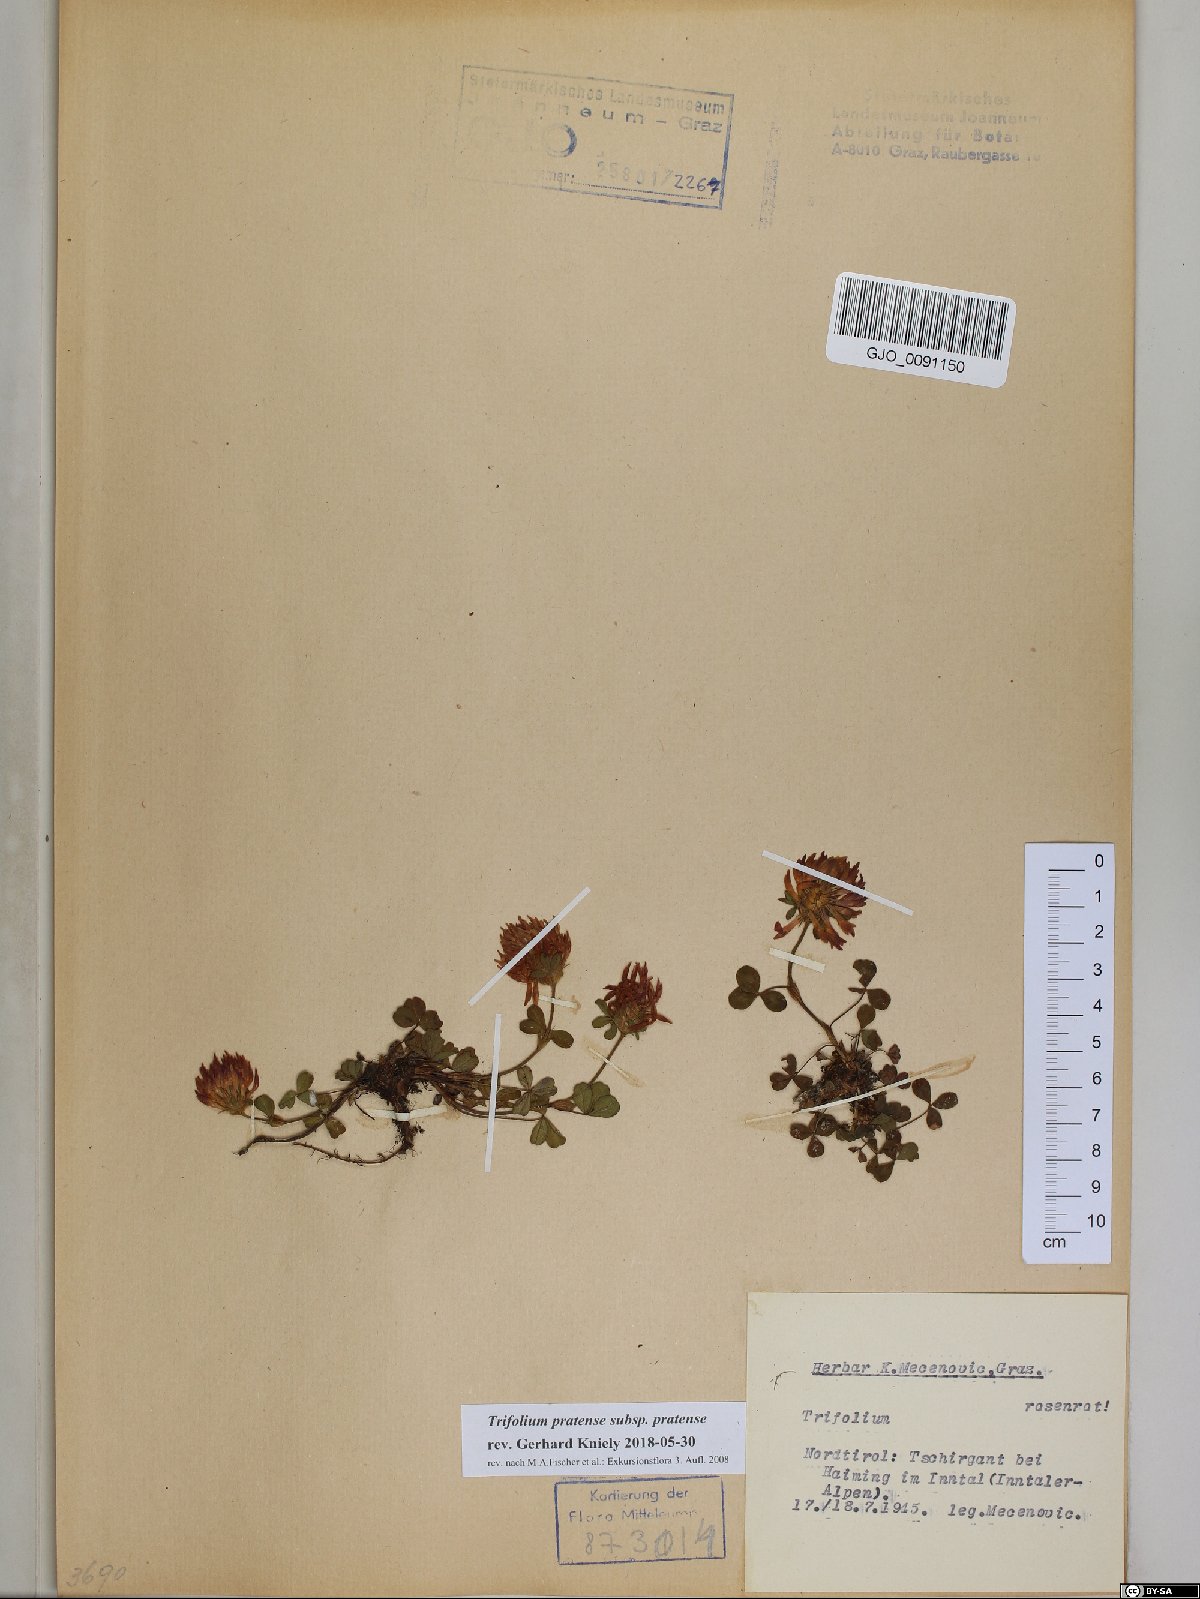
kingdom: Plantae
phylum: Tracheophyta
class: Magnoliopsida
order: Fabales
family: Fabaceae
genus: Trifolium
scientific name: Trifolium pratense
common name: Red clover
